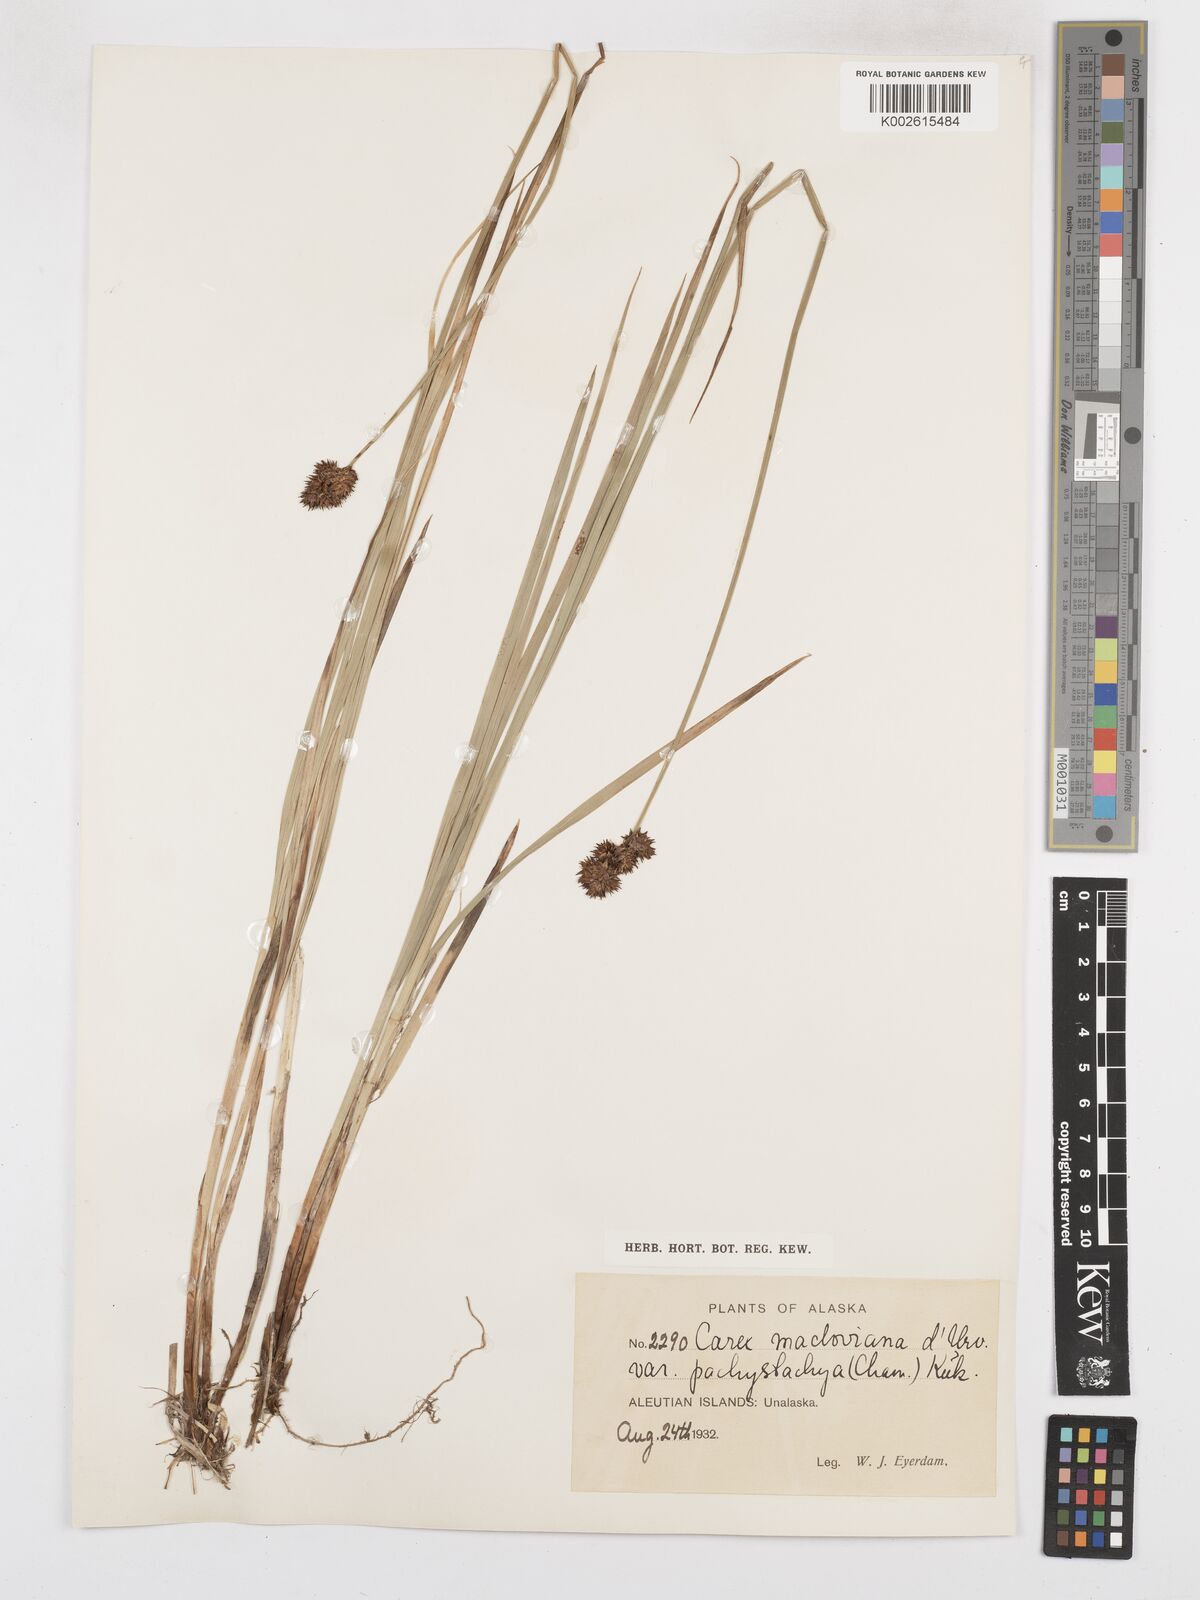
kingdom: Plantae
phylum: Tracheophyta
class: Liliopsida
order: Poales
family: Cyperaceae
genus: Carex
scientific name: Carex macloviana
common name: Falkland island sedge
